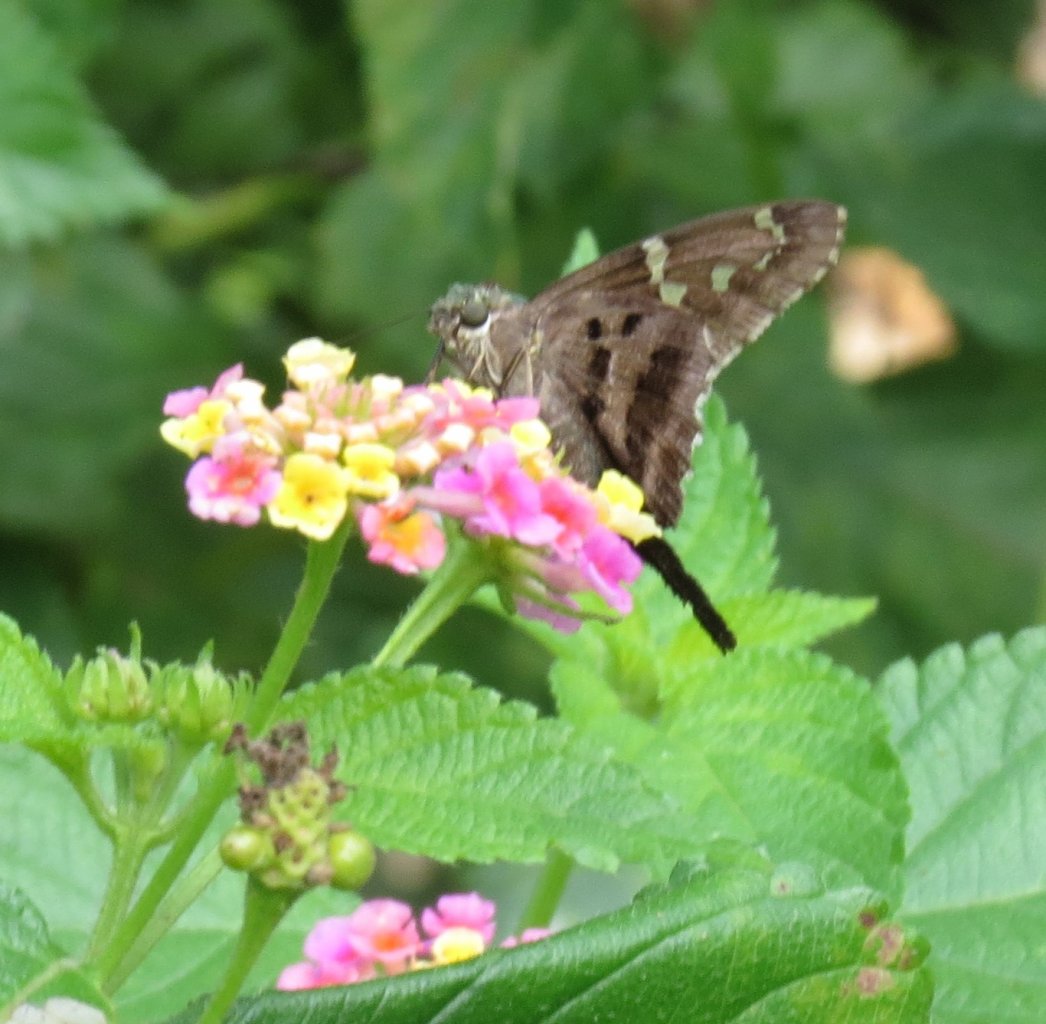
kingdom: Animalia
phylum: Arthropoda
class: Insecta
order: Lepidoptera
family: Hesperiidae
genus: Urbanus
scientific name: Urbanus proteus
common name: Long-tailed Skipper
